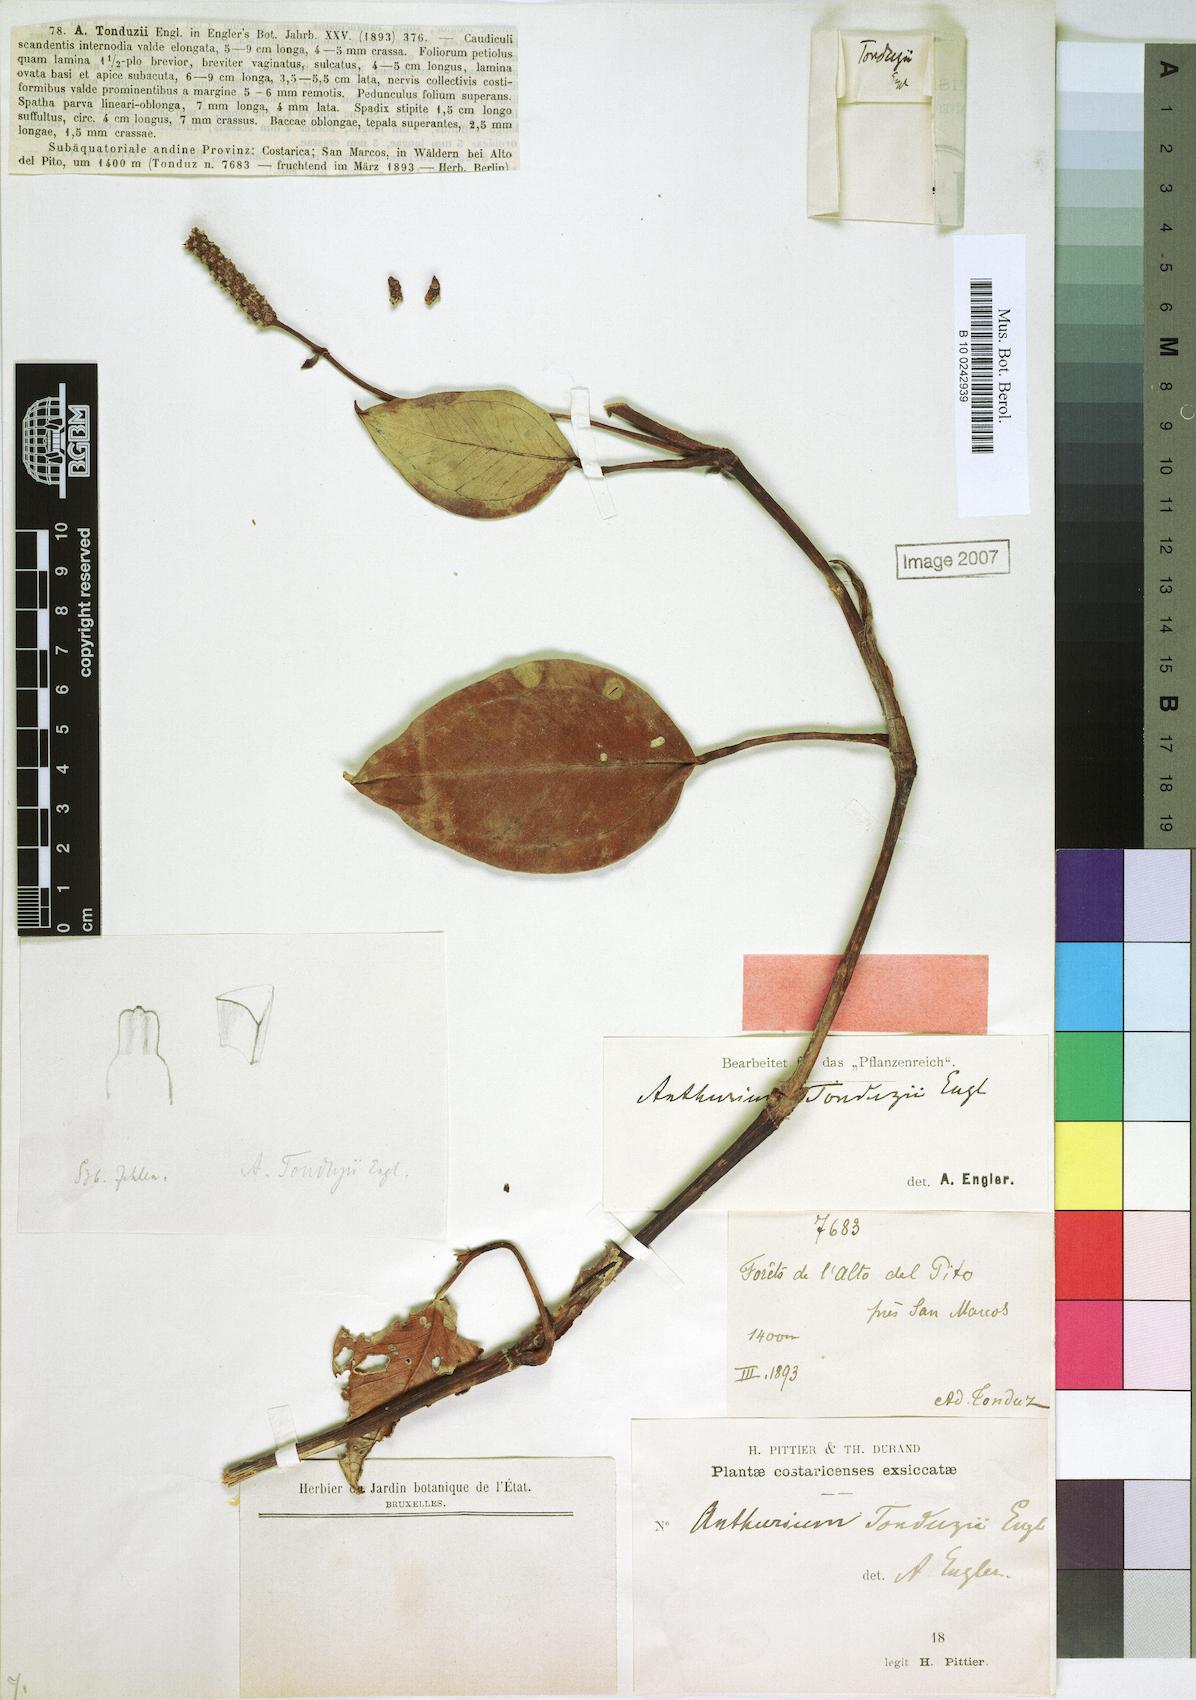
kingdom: Plantae
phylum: Tracheophyta
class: Liliopsida
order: Alismatales
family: Araceae
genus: Anthurium
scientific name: Anthurium tonduzii
